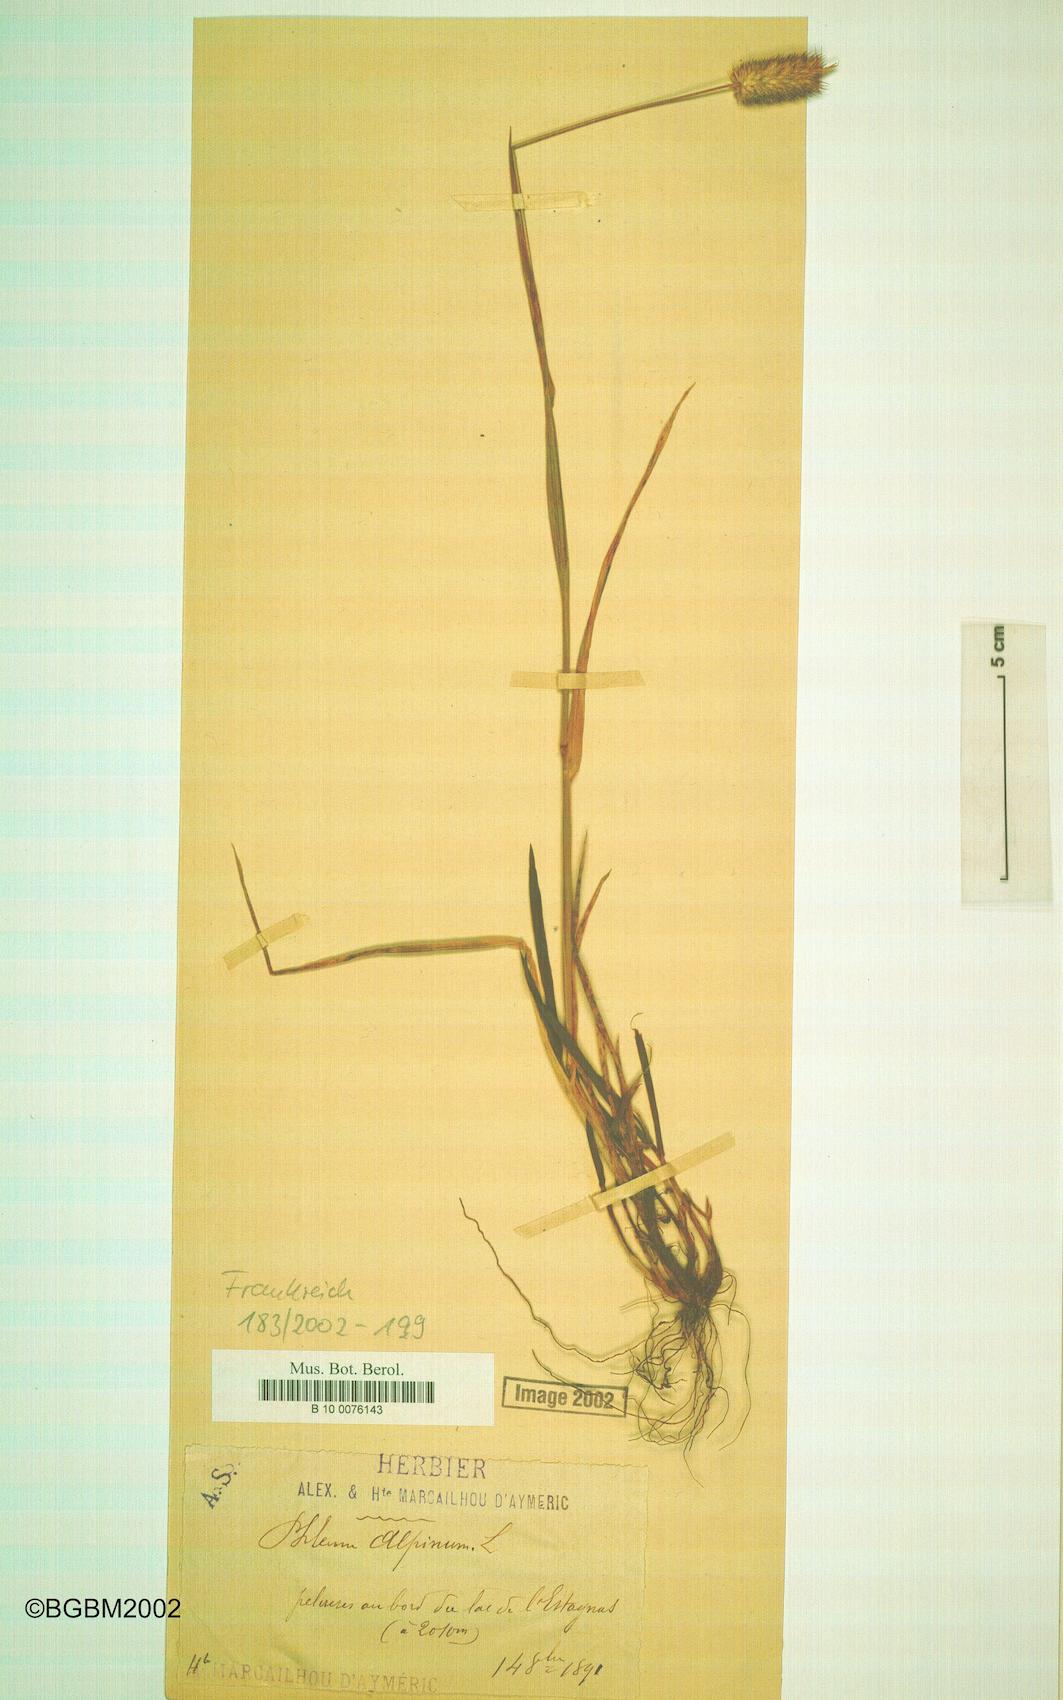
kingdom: Plantae
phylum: Tracheophyta
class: Liliopsida
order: Poales
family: Poaceae
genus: Phleum
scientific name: Phleum alpinum
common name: Alpine cat's-tail
